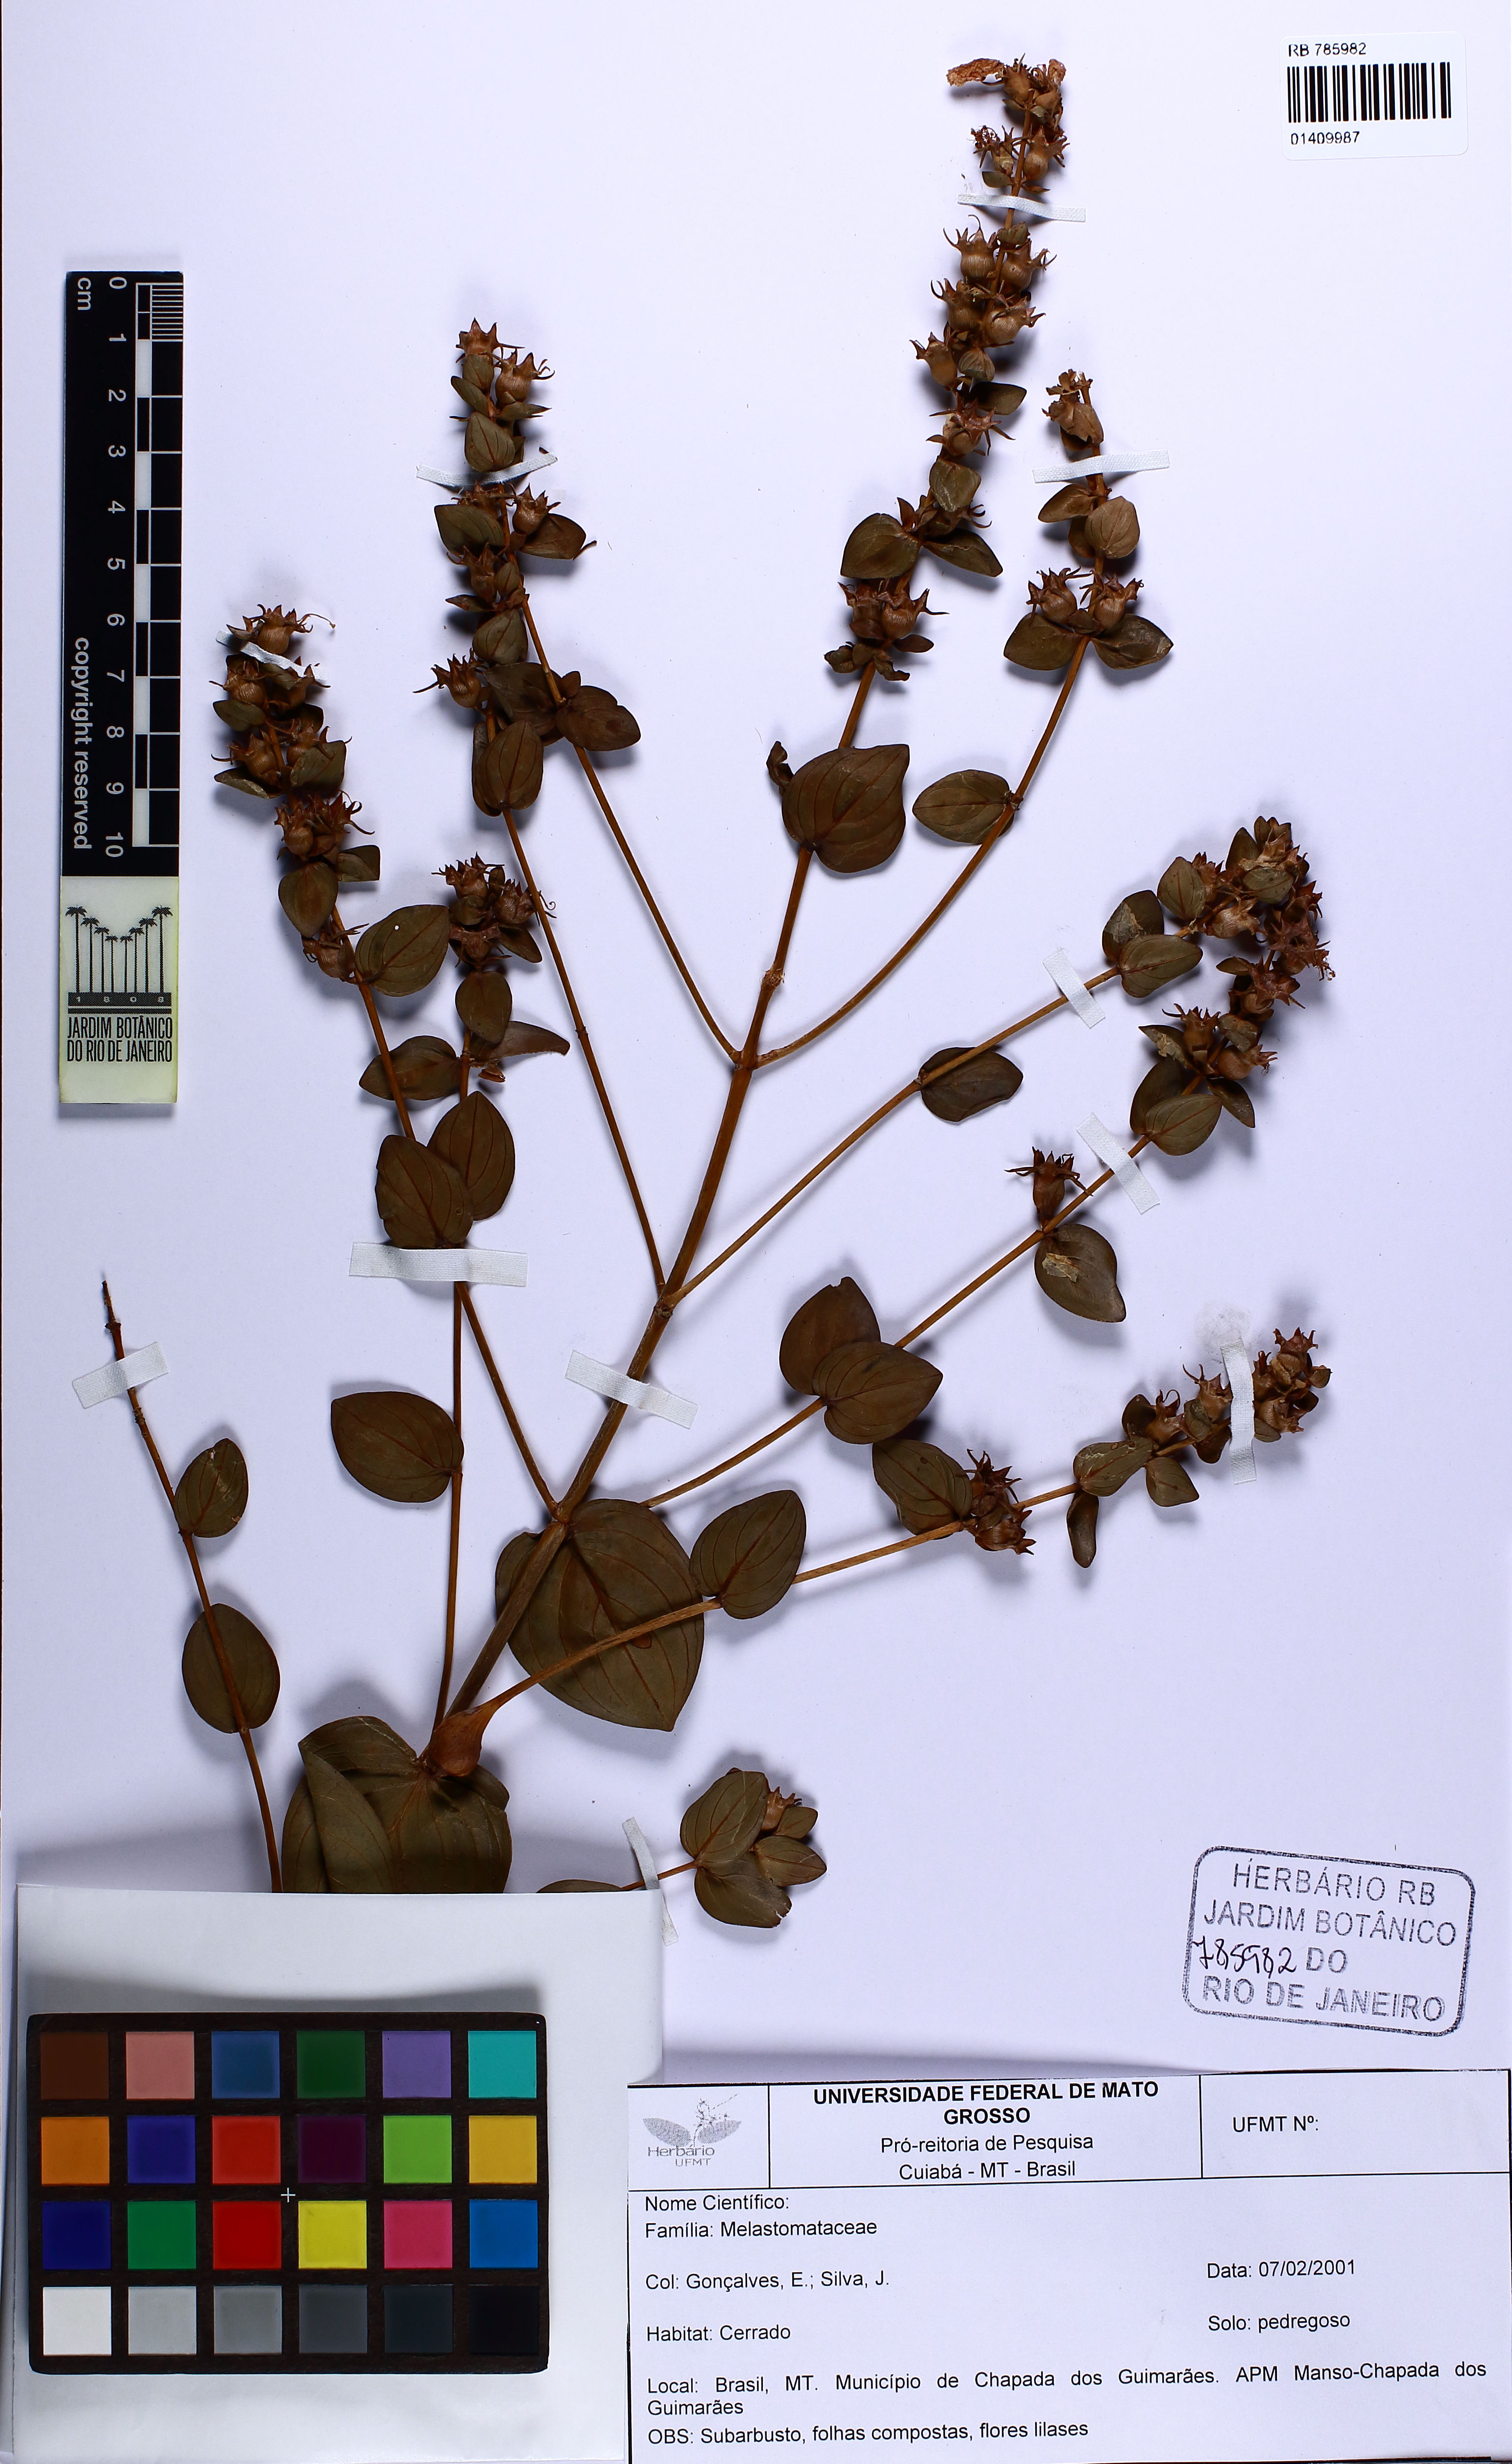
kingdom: Plantae
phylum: Tracheophyta
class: Magnoliopsida
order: Myrtales
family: Lythraceae
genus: Diplusodon
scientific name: Diplusodon speciosus
